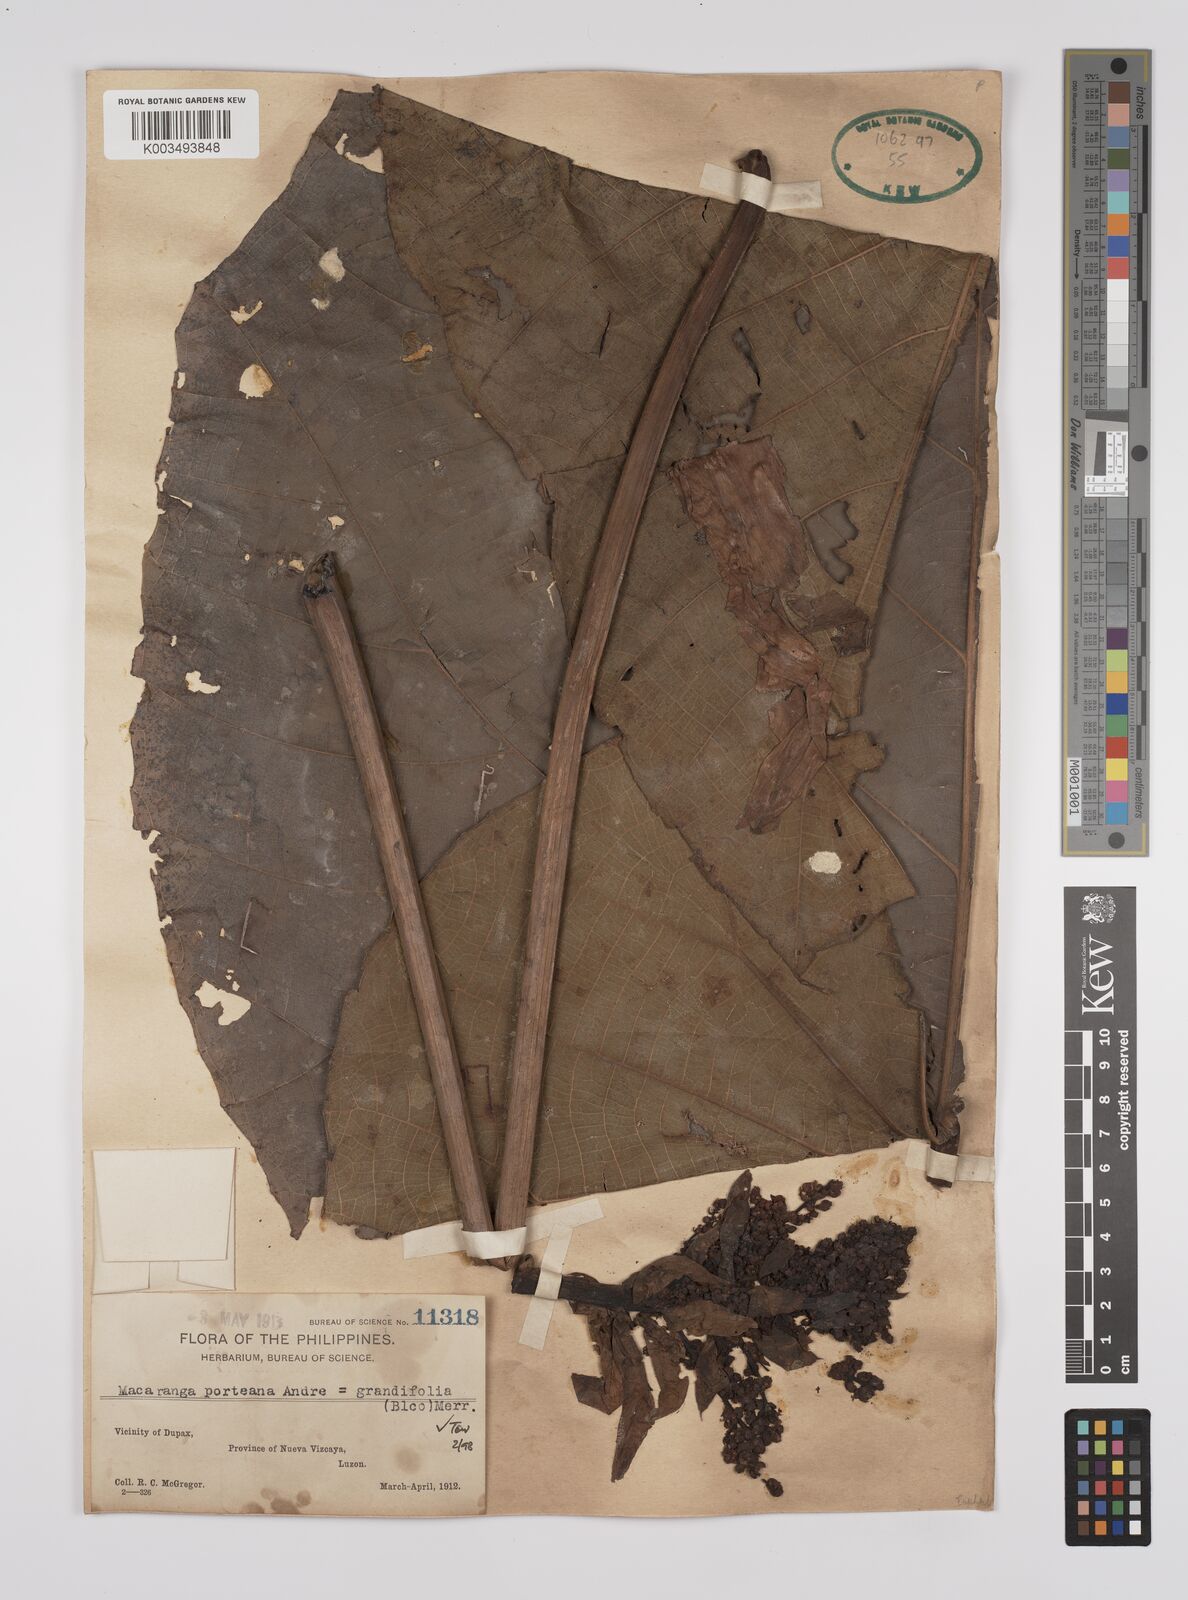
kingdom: Plantae
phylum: Tracheophyta
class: Magnoliopsida
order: Malpighiales
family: Euphorbiaceae
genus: Macaranga
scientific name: Macaranga grandifolia
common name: Coraltree
